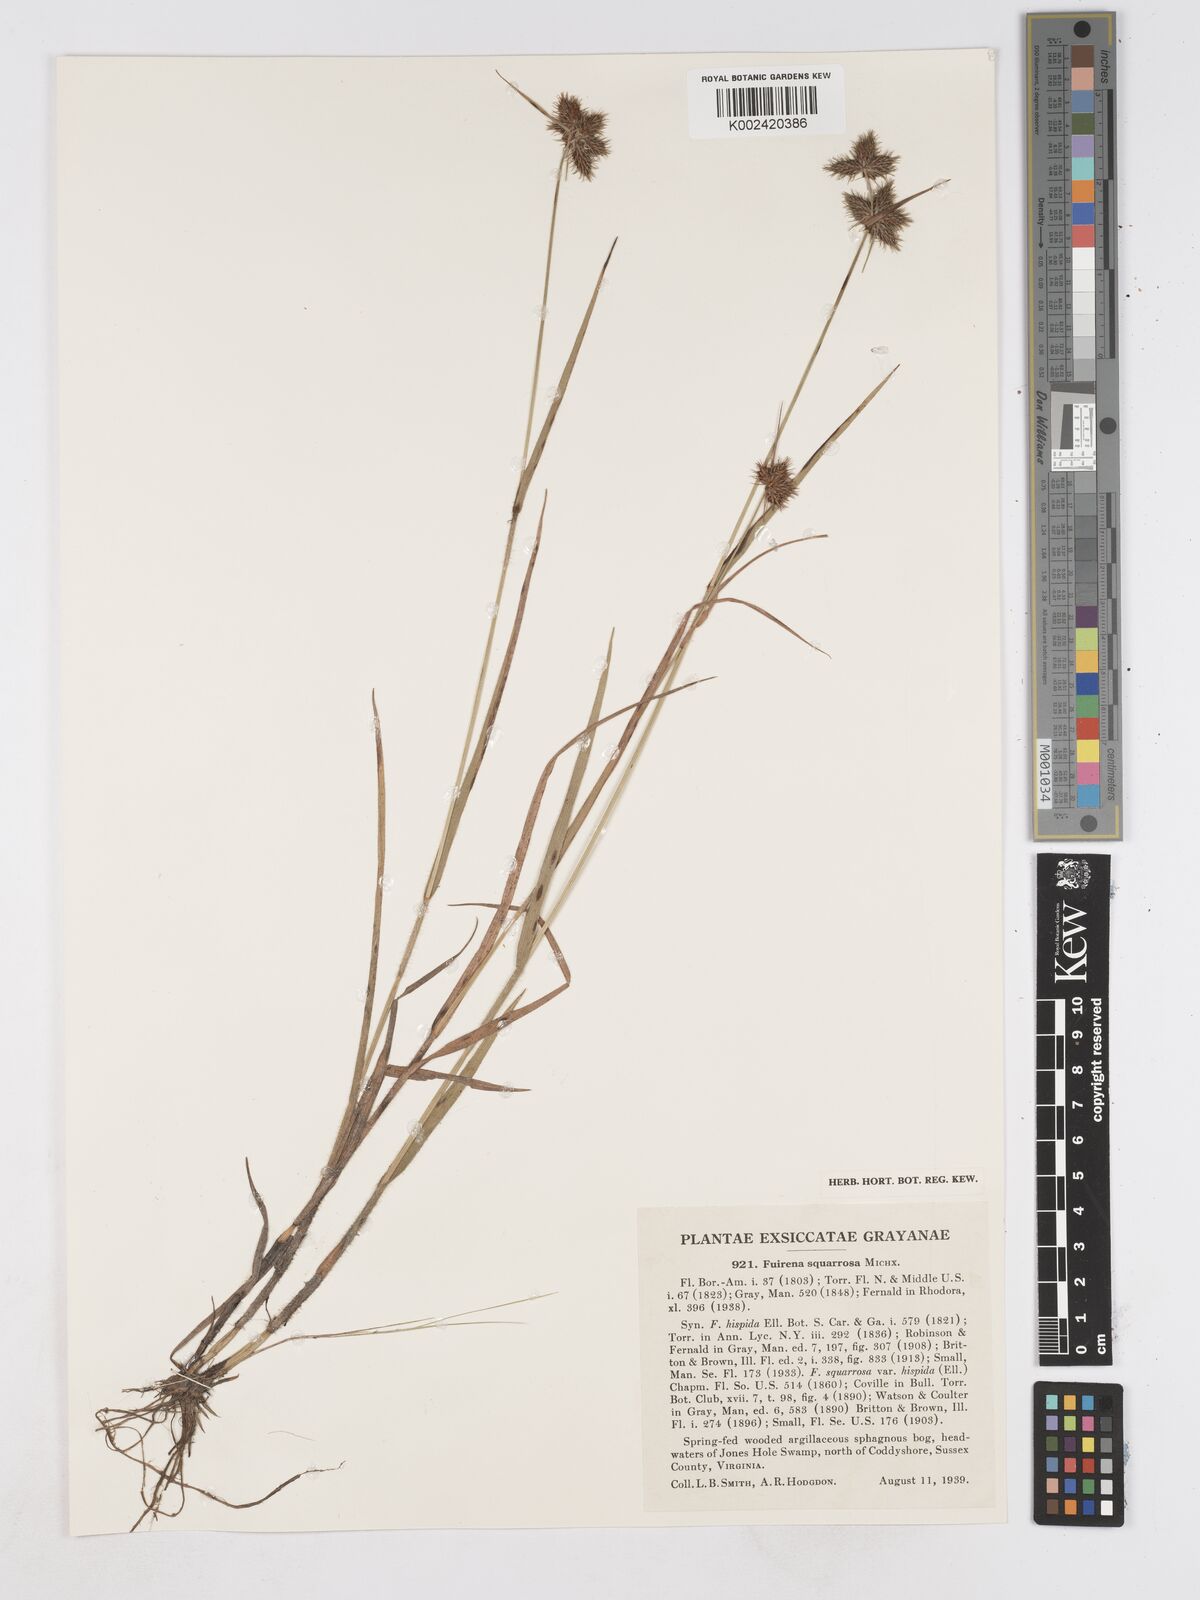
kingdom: Plantae
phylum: Tracheophyta
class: Liliopsida
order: Poales
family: Cyperaceae
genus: Fuirena
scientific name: Fuirena squarrosa
